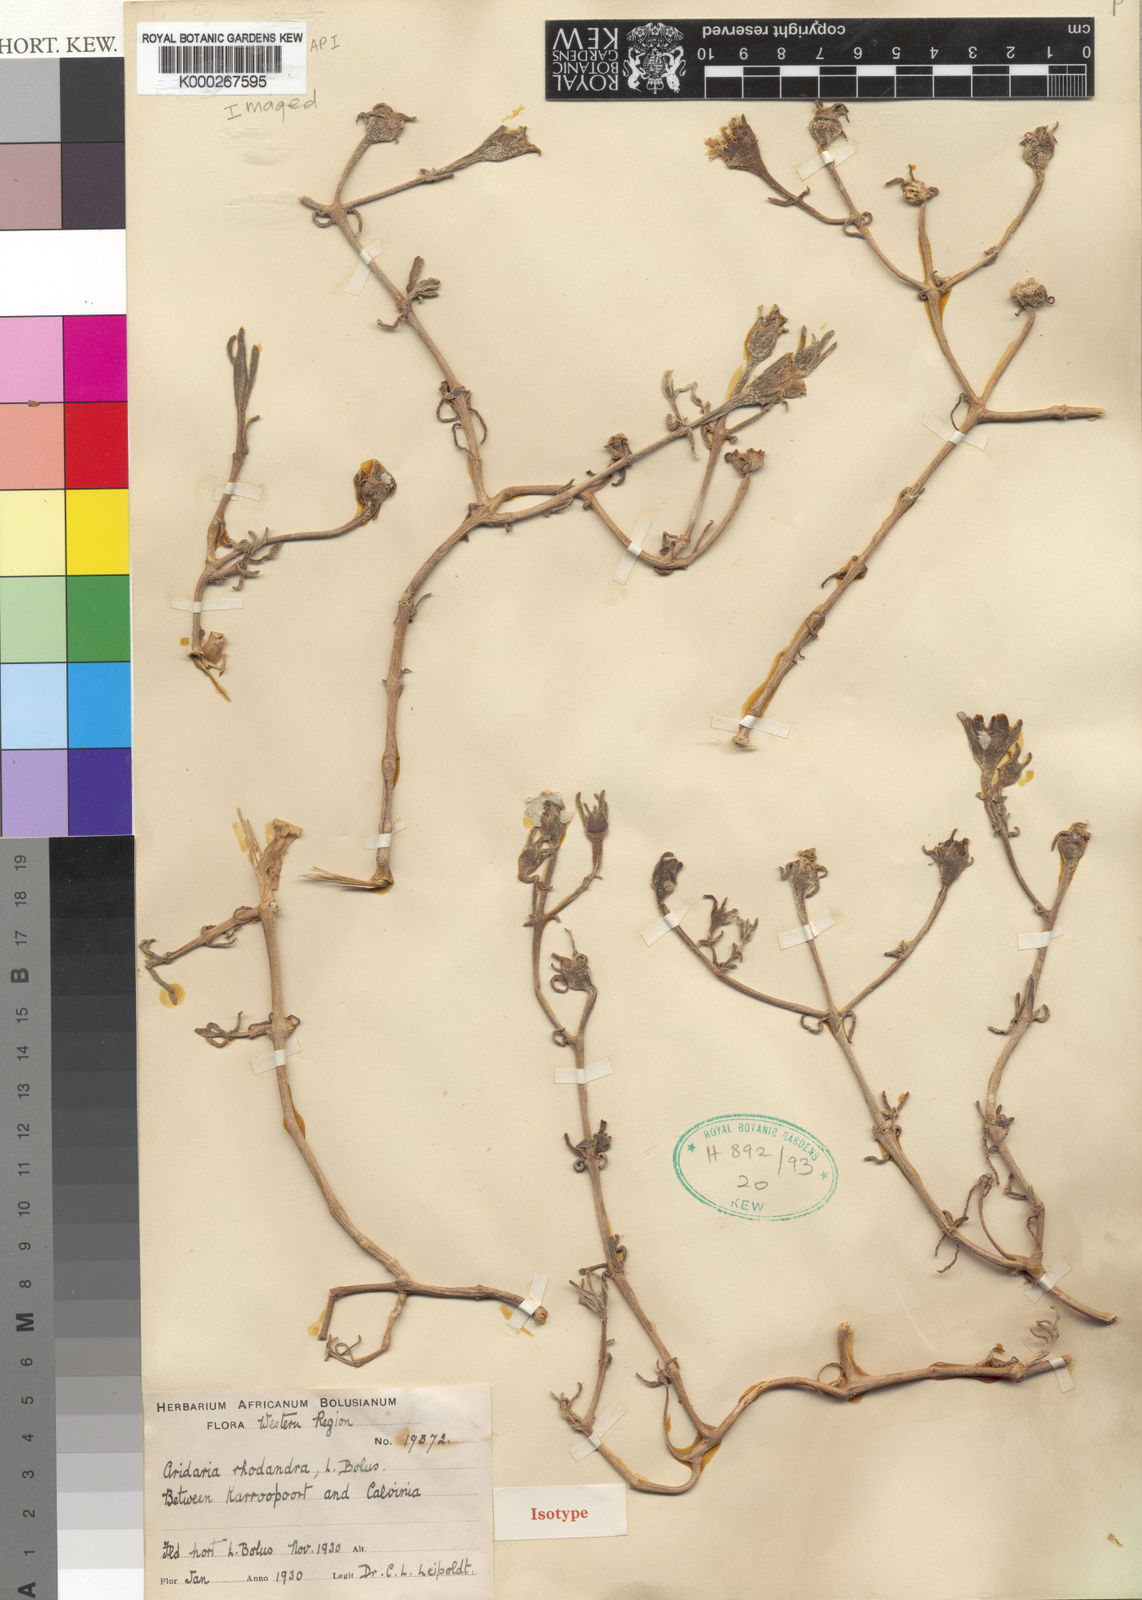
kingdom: Plantae
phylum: Tracheophyta
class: Magnoliopsida
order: Caryophyllales
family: Aizoaceae
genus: Mesembryanthemum
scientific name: Mesembryanthemum
